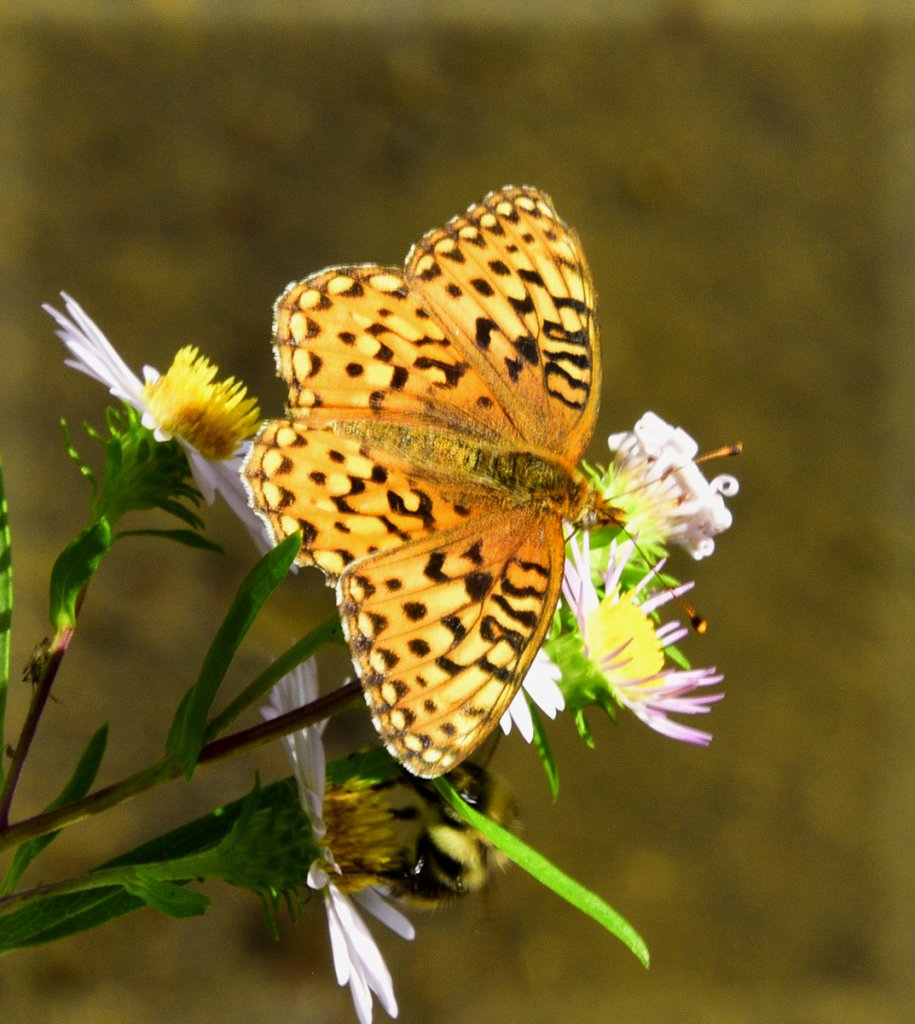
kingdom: Animalia
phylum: Arthropoda
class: Insecta
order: Lepidoptera
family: Nymphalidae
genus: Speyeria
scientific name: Speyeria zerene
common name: Zerene Fritillary
